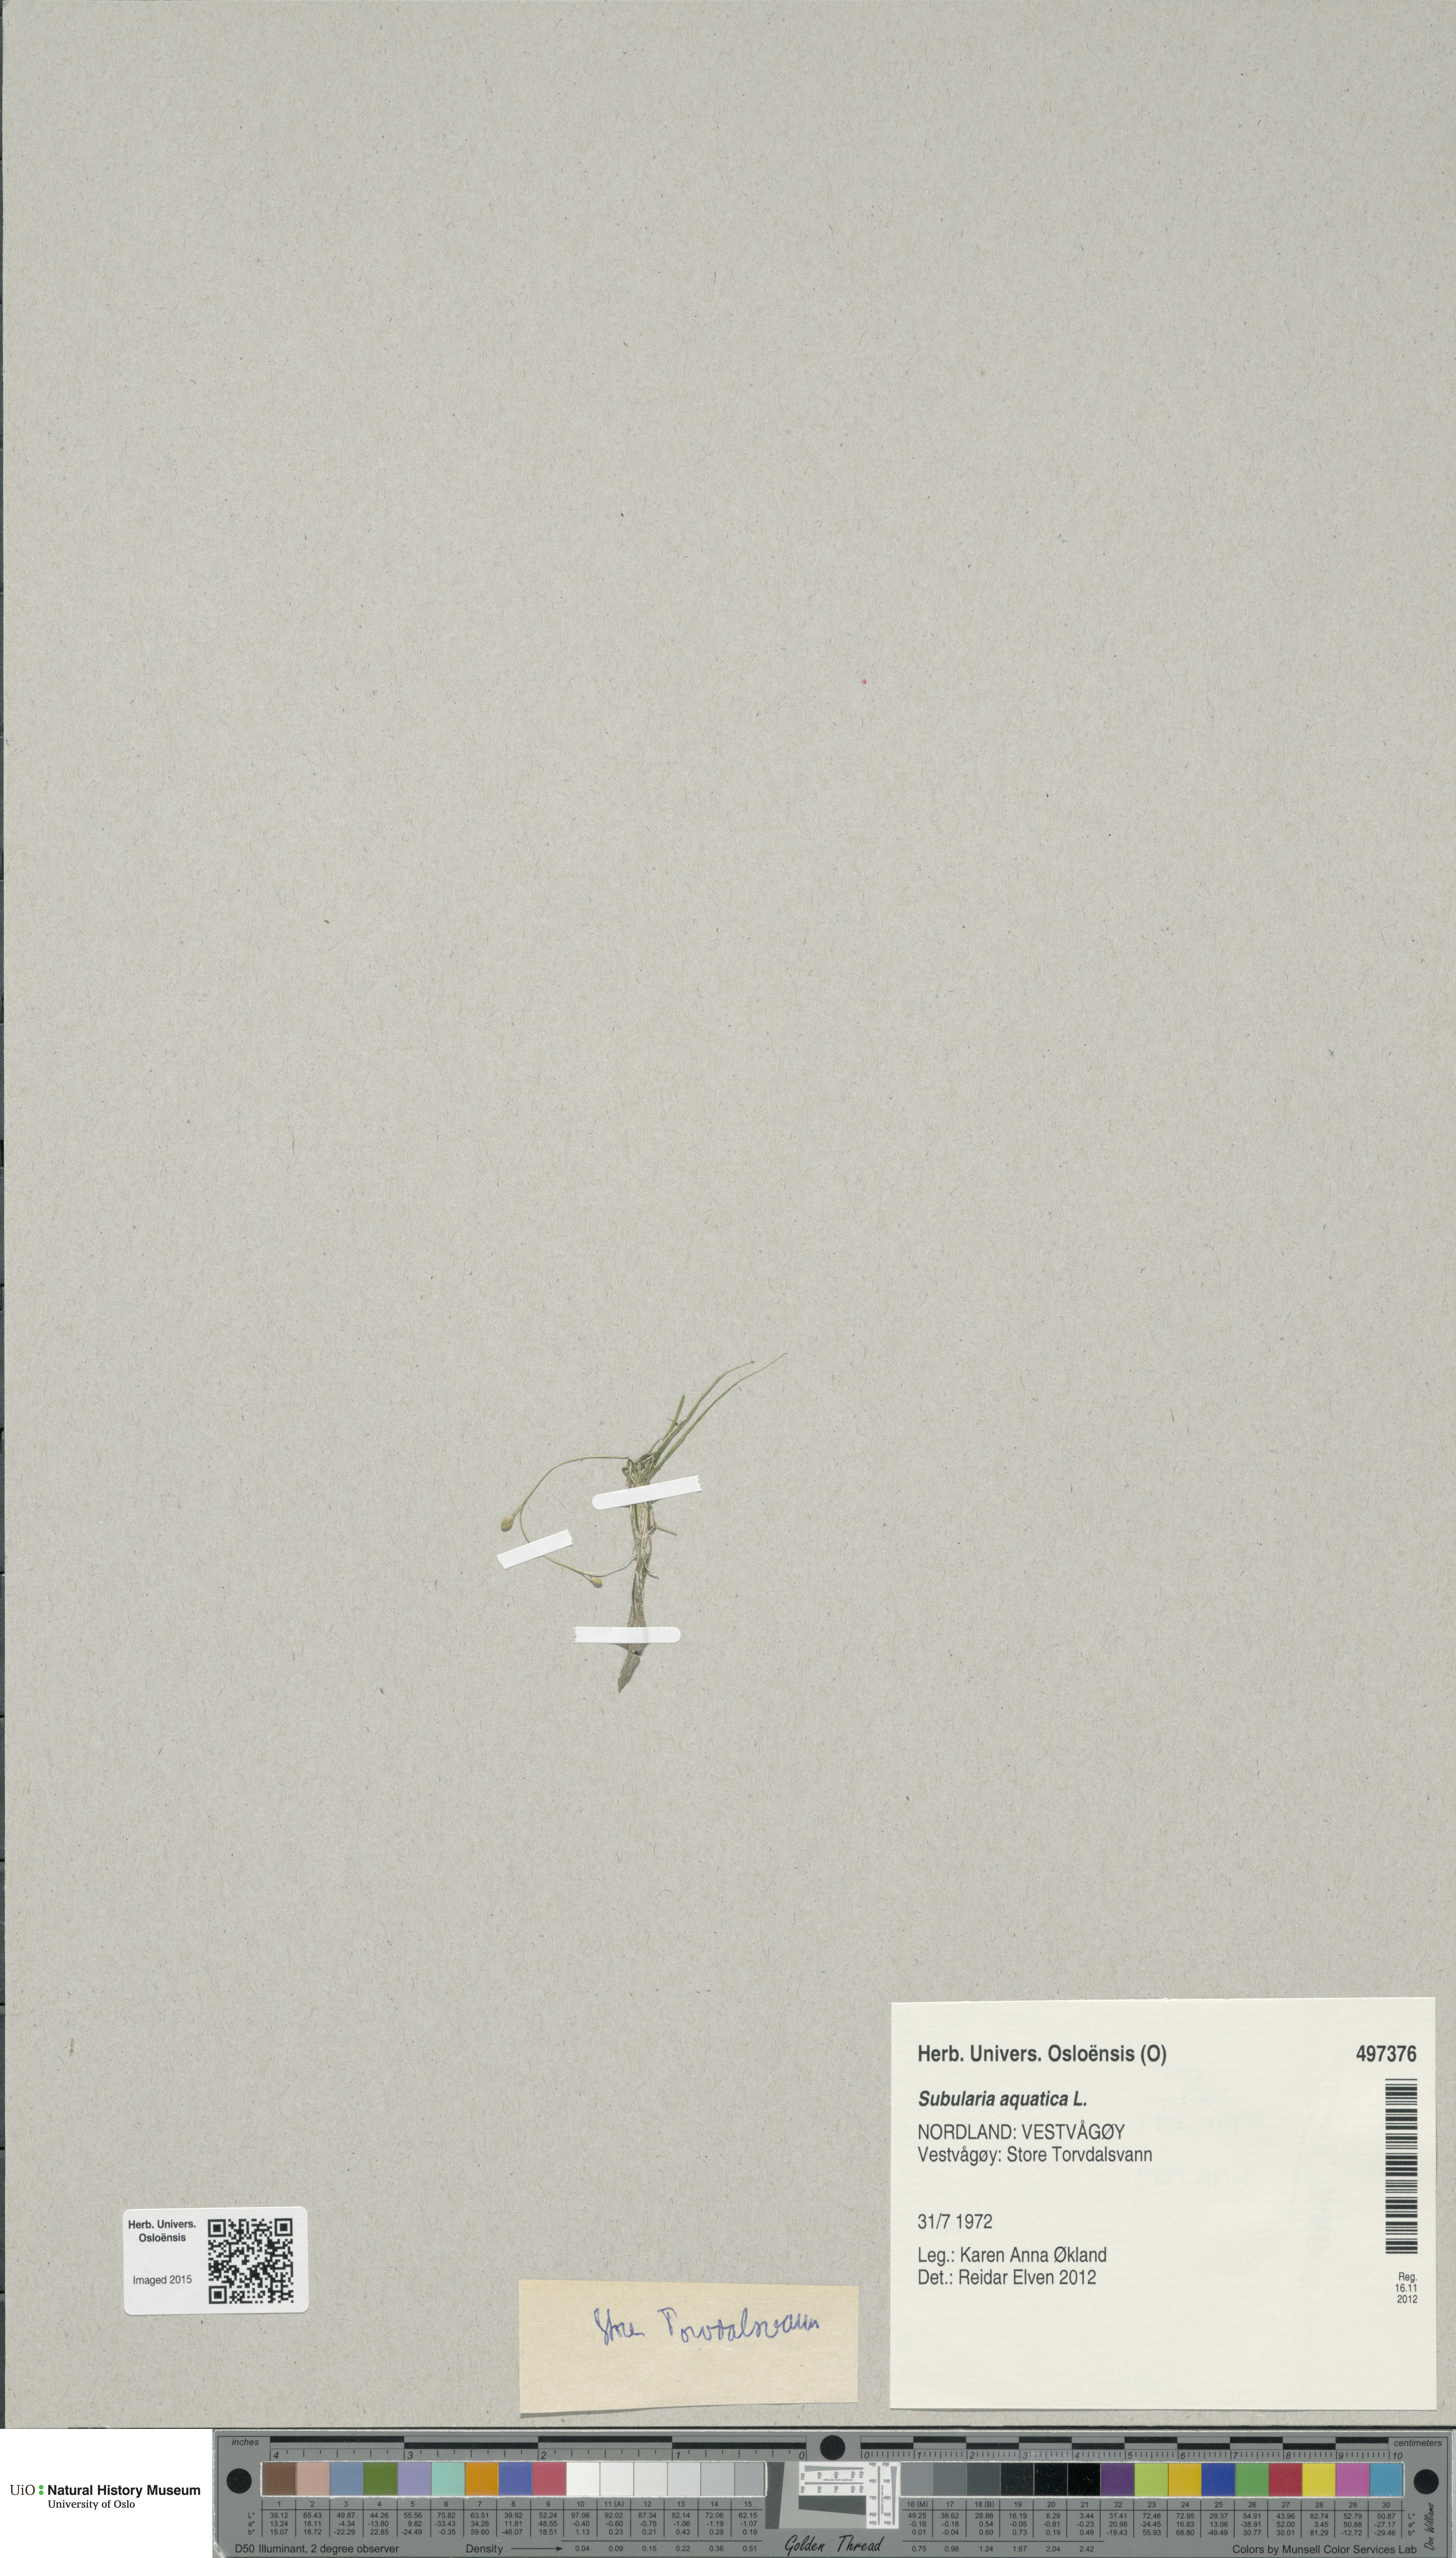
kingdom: Plantae
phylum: Tracheophyta
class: Magnoliopsida
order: Brassicales
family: Brassicaceae
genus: Subularia
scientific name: Subularia aquatica
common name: Awlwort
